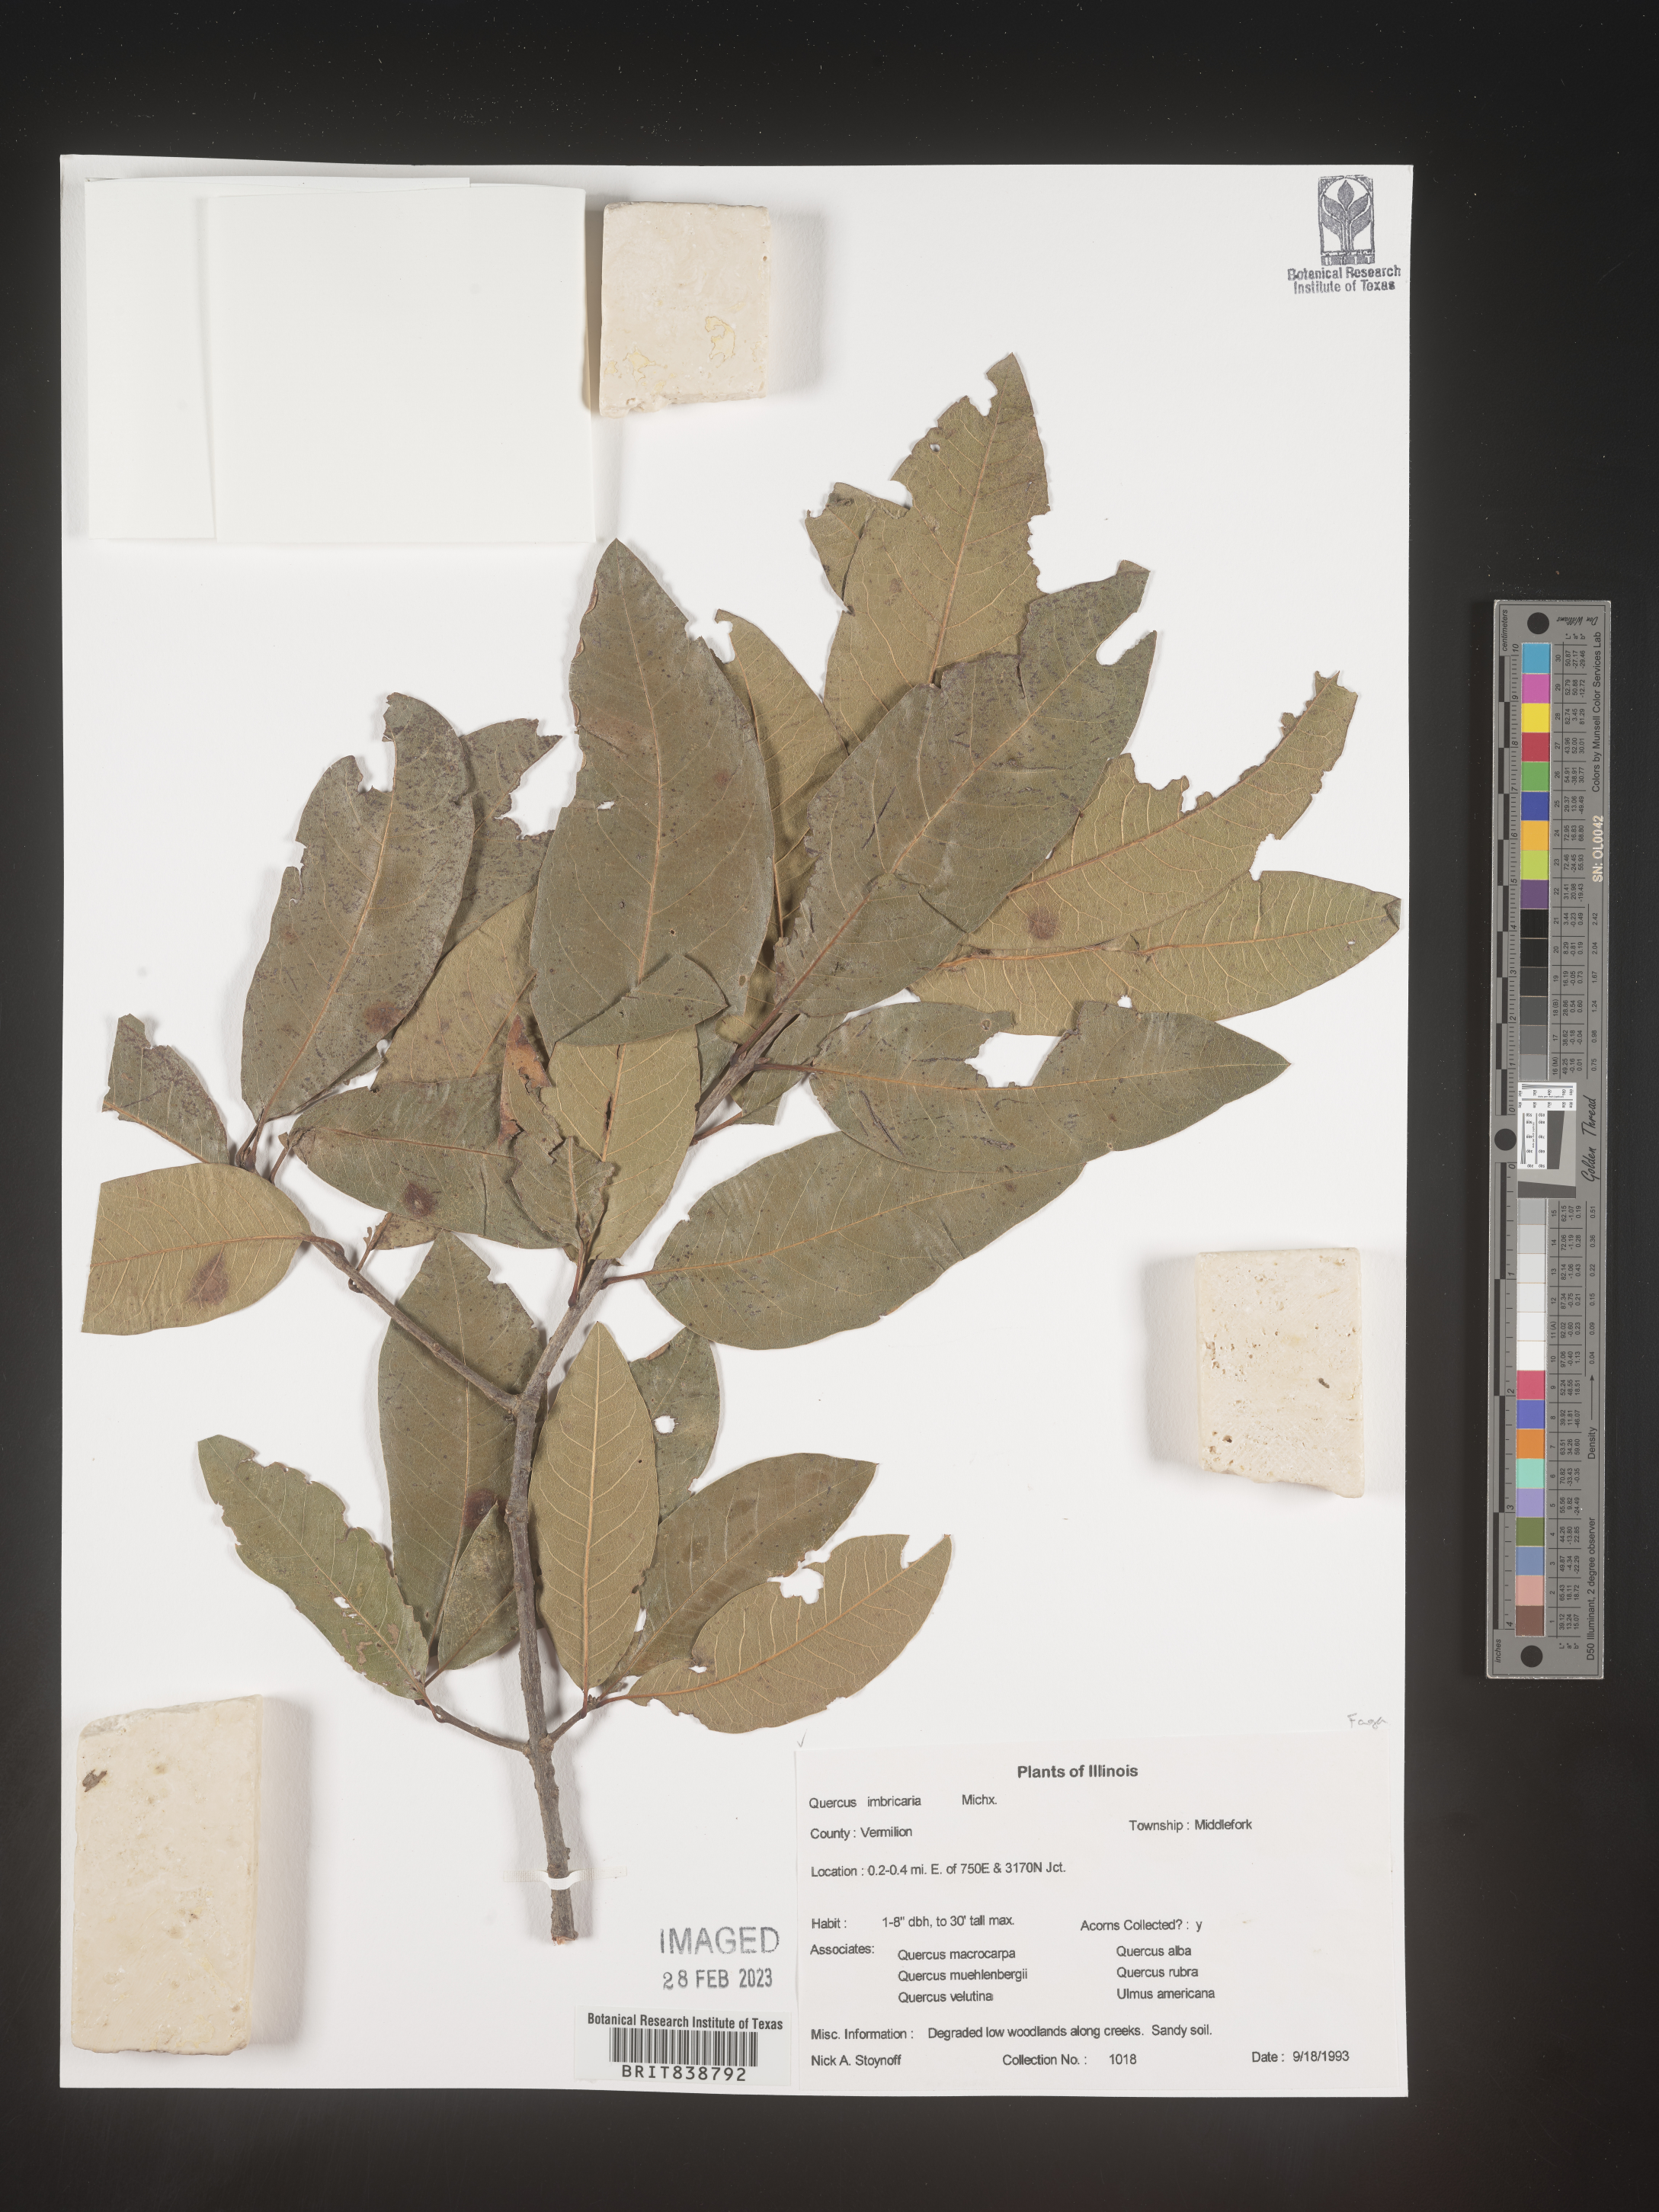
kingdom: Plantae
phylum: Tracheophyta
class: Magnoliopsida
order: Fagales
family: Fagaceae
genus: Quercus
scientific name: Quercus imbricaria
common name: Shingle oak
